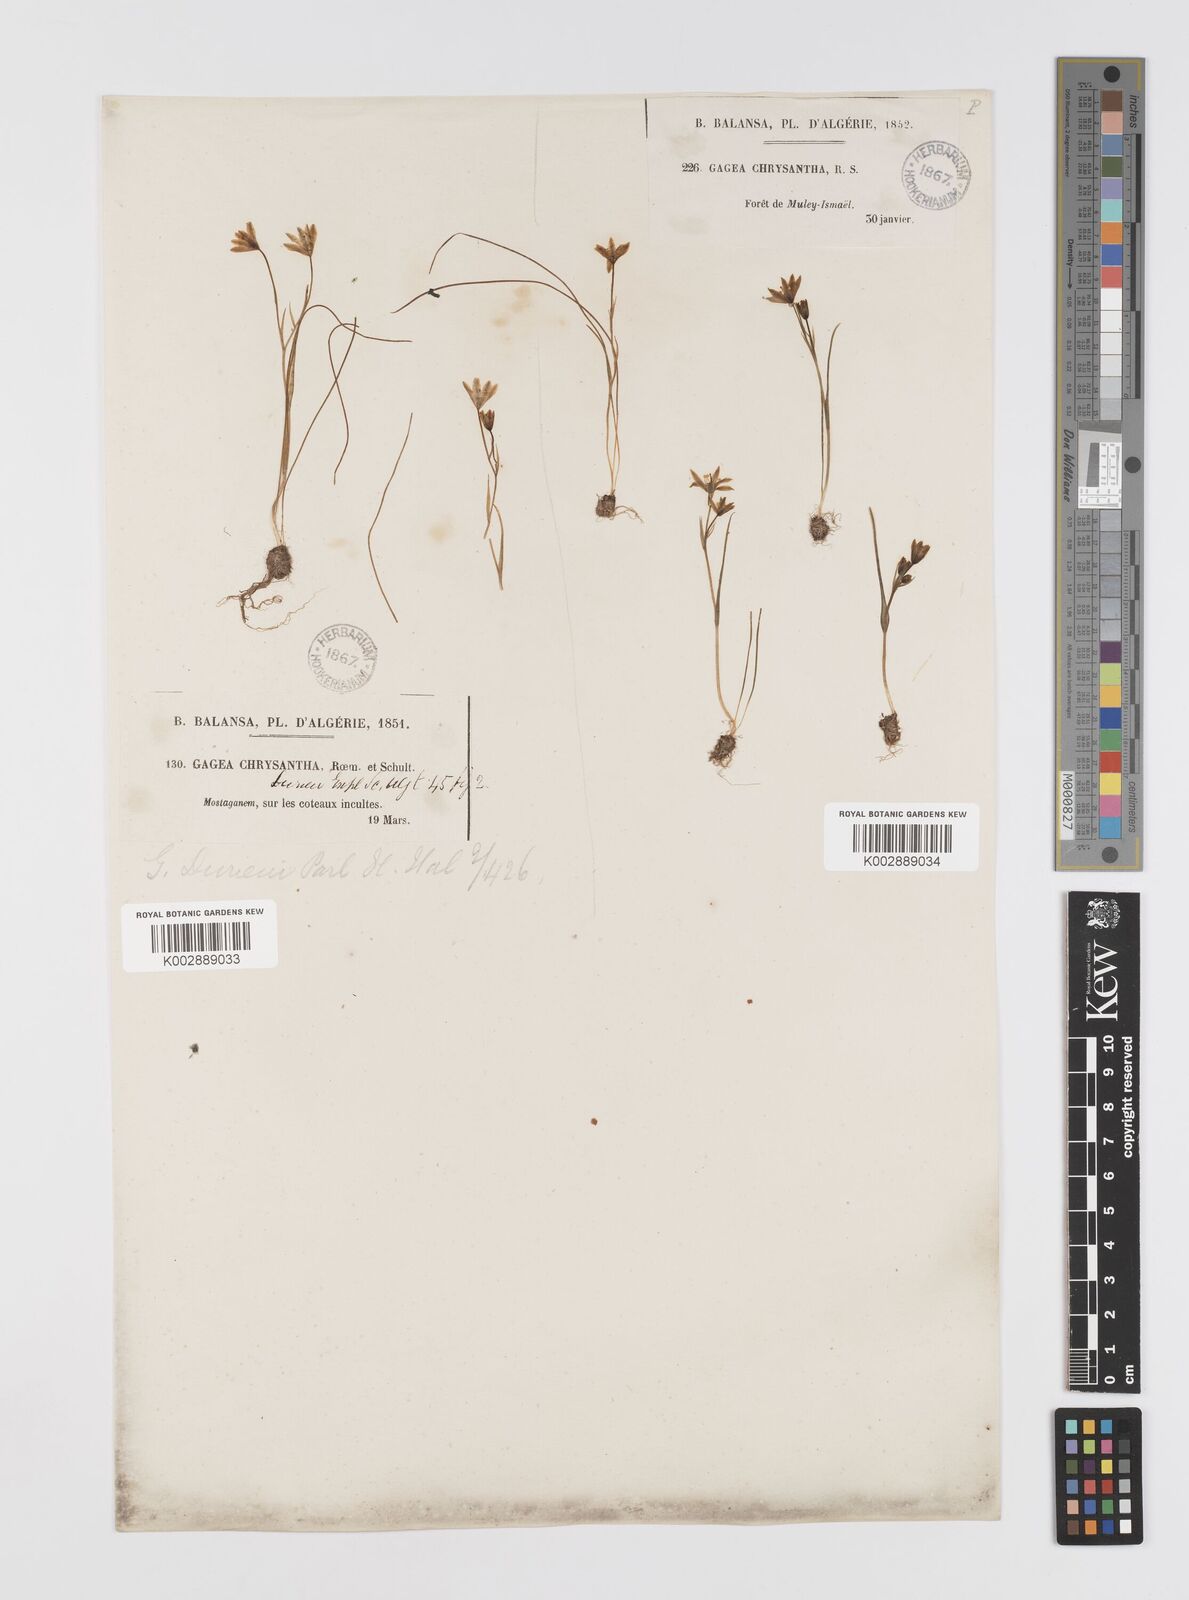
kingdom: Plantae
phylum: Tracheophyta
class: Liliopsida
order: Liliales
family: Liliaceae
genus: Gagea
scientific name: Gagea durieui
